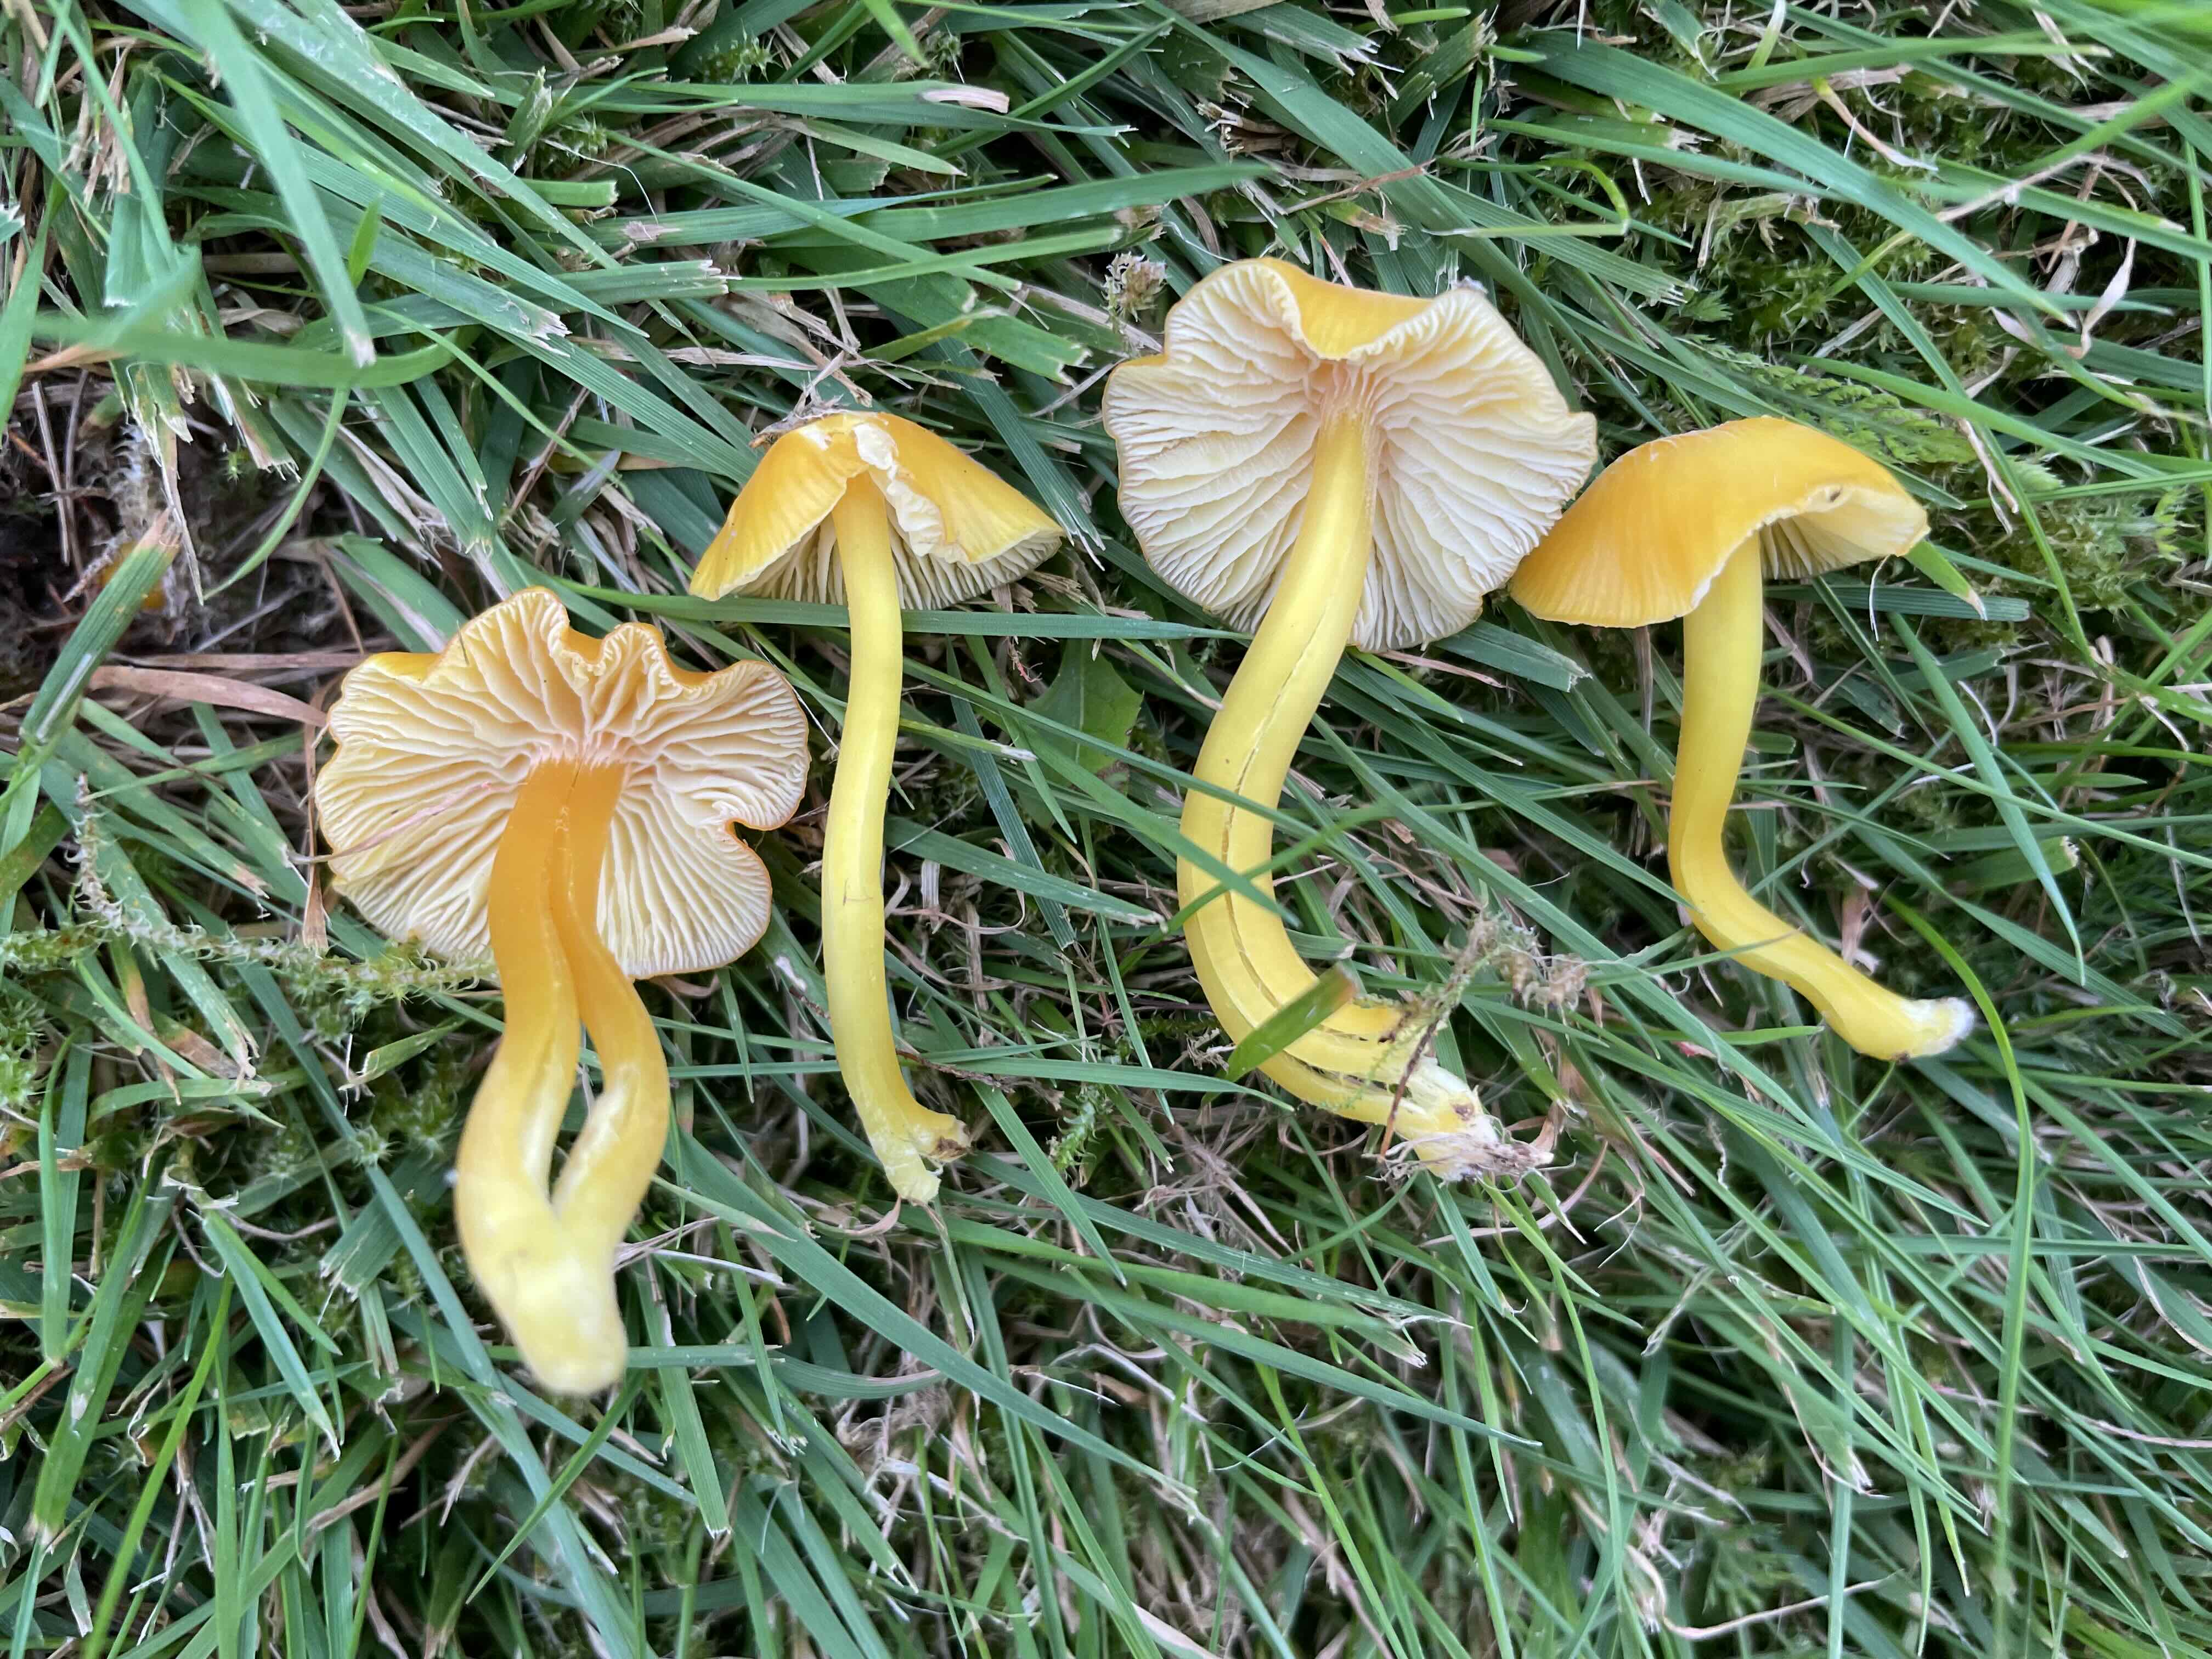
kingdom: Fungi
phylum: Basidiomycota
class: Agaricomycetes
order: Agaricales
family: Hygrophoraceae
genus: Hygrocybe
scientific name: Hygrocybe ceracea
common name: voksgul vokshat
